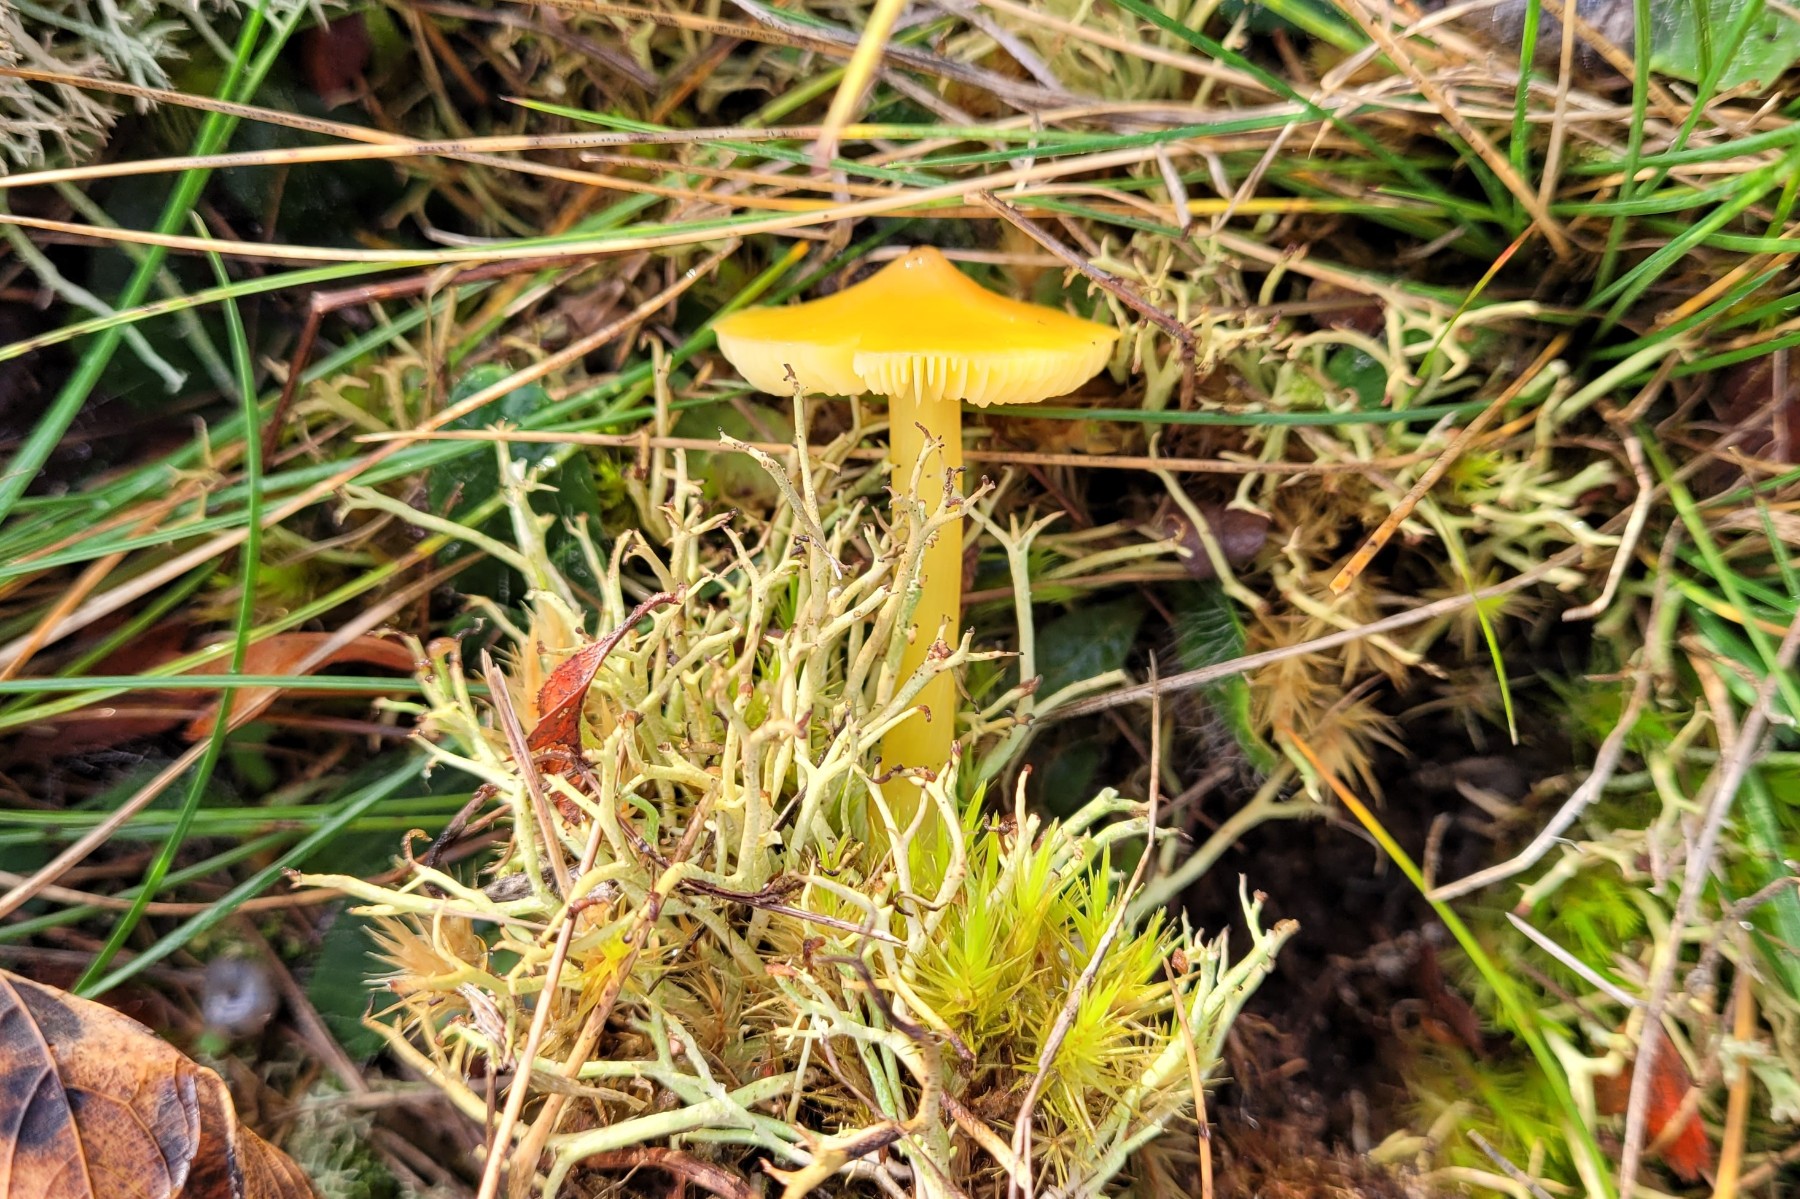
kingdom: Fungi
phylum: Basidiomycota
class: Agaricomycetes
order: Agaricales
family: Hygrophoraceae
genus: Hygrocybe
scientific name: Hygrocybe acutoconica
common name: spidspuklet vokshat
